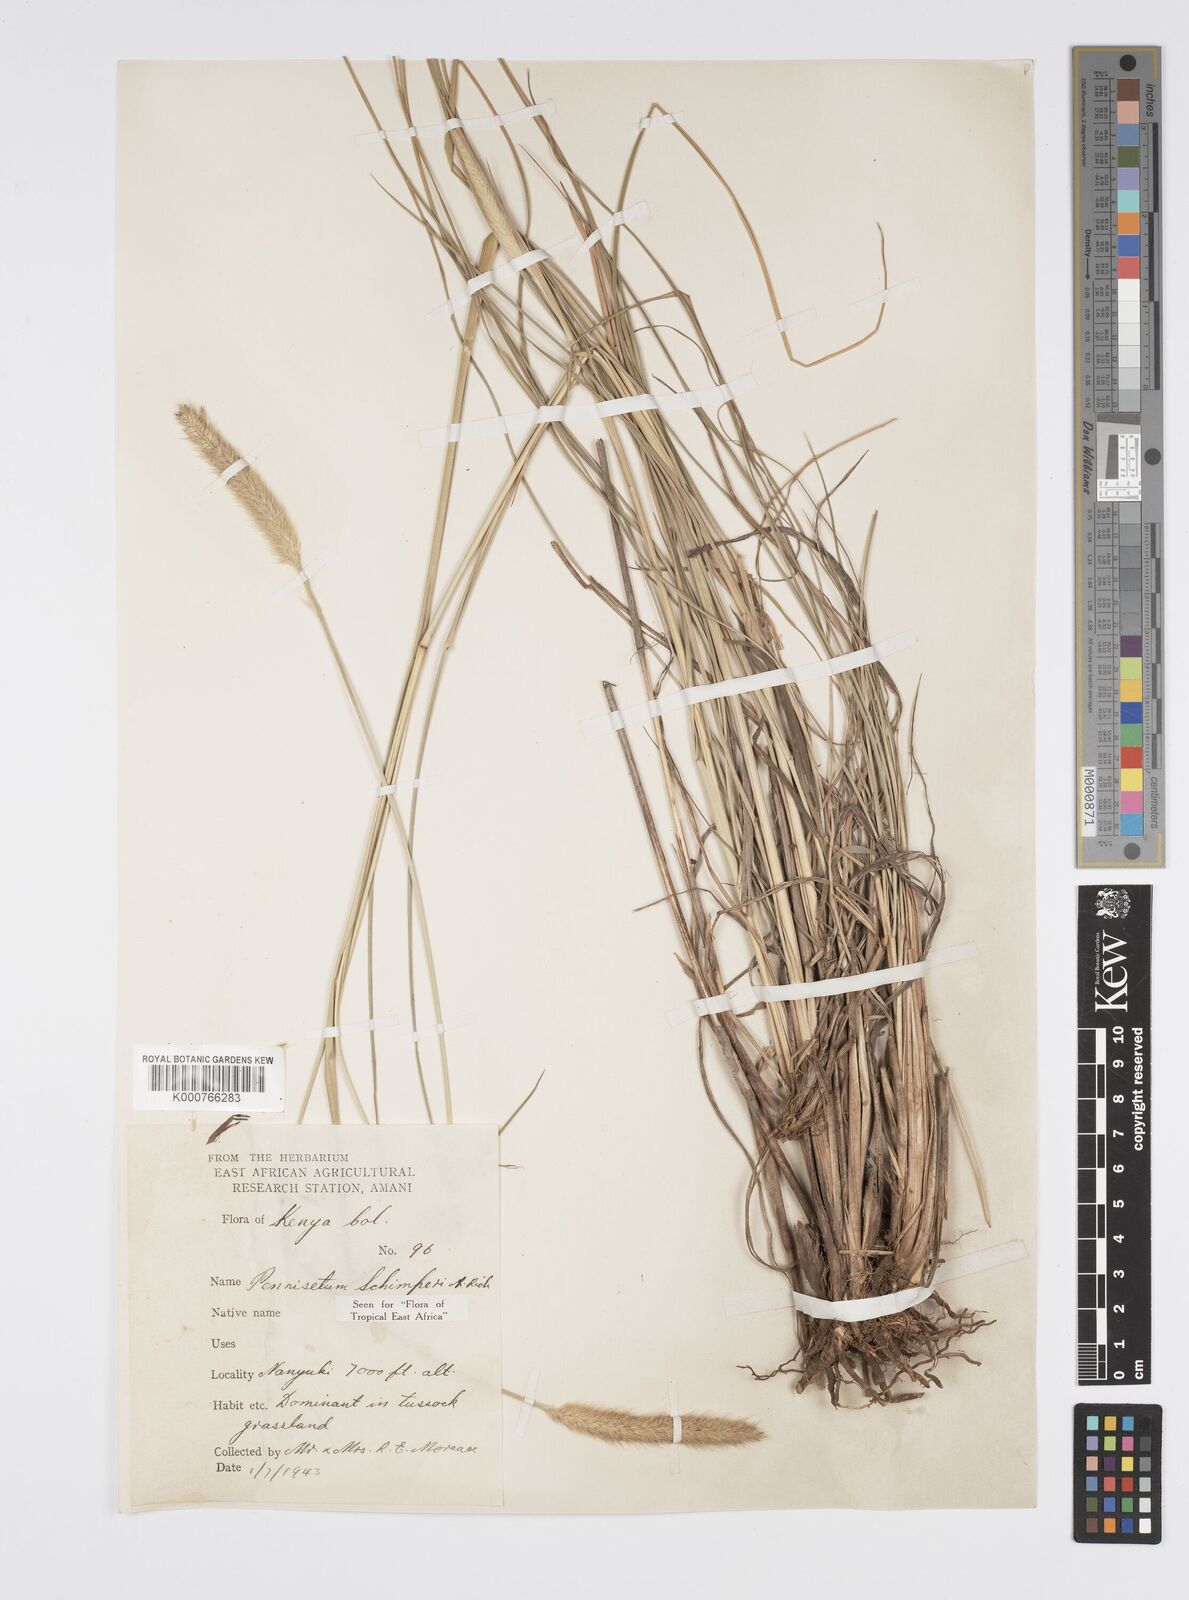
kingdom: Plantae
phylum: Tracheophyta
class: Liliopsida
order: Poales
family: Poaceae
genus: Cenchrus
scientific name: Cenchrus sphacelatus
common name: Bulgras
